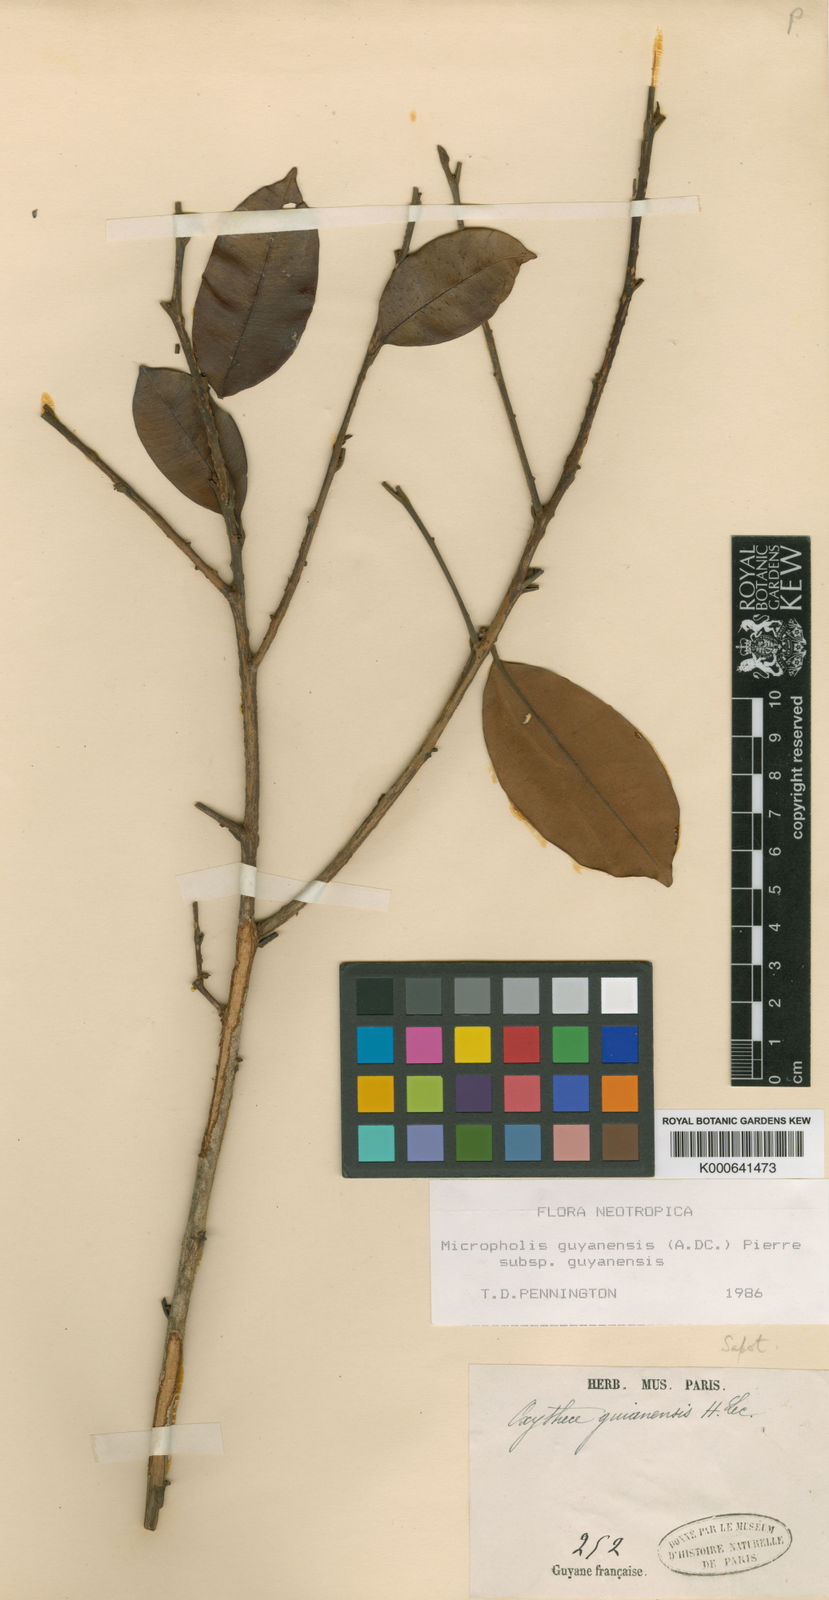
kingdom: Plantae
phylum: Tracheophyta
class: Magnoliopsida
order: Ericales
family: Sapotaceae
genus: Micropholis
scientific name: Micropholis guyanensis
